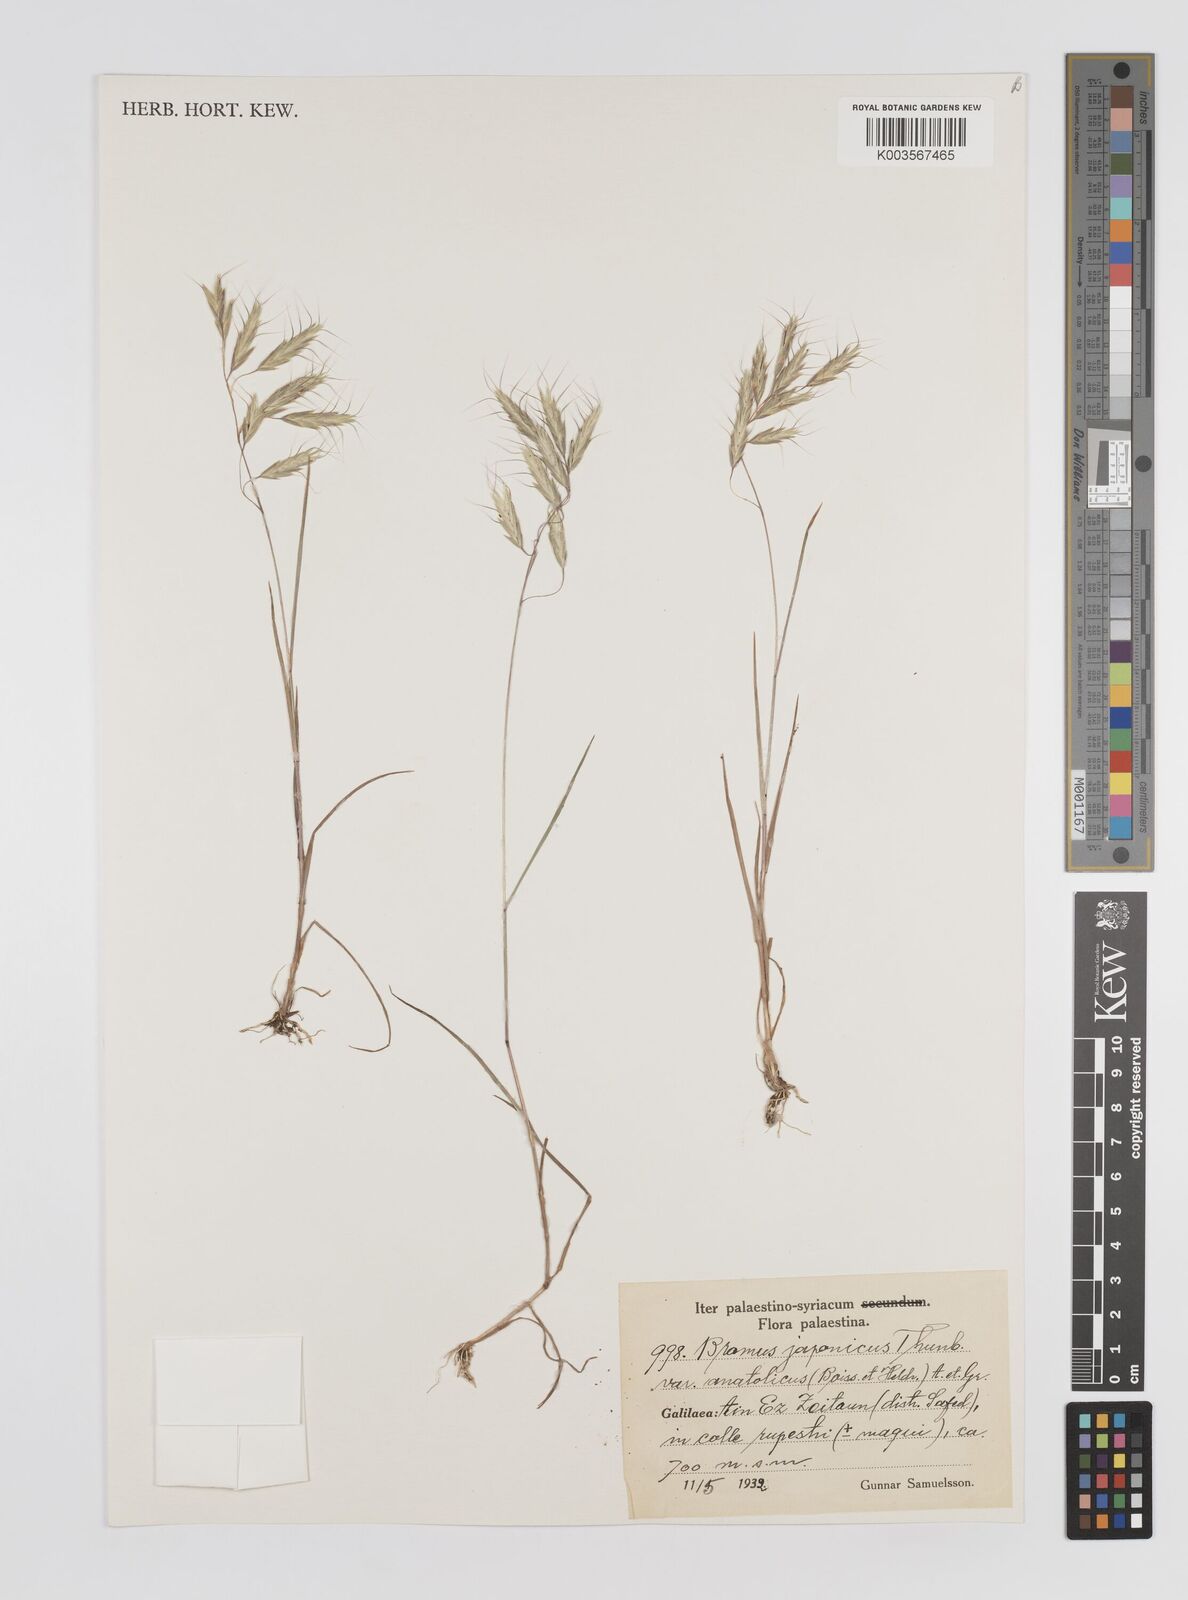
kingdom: Plantae
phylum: Tracheophyta
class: Liliopsida
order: Poales
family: Poaceae
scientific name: Poaceae
